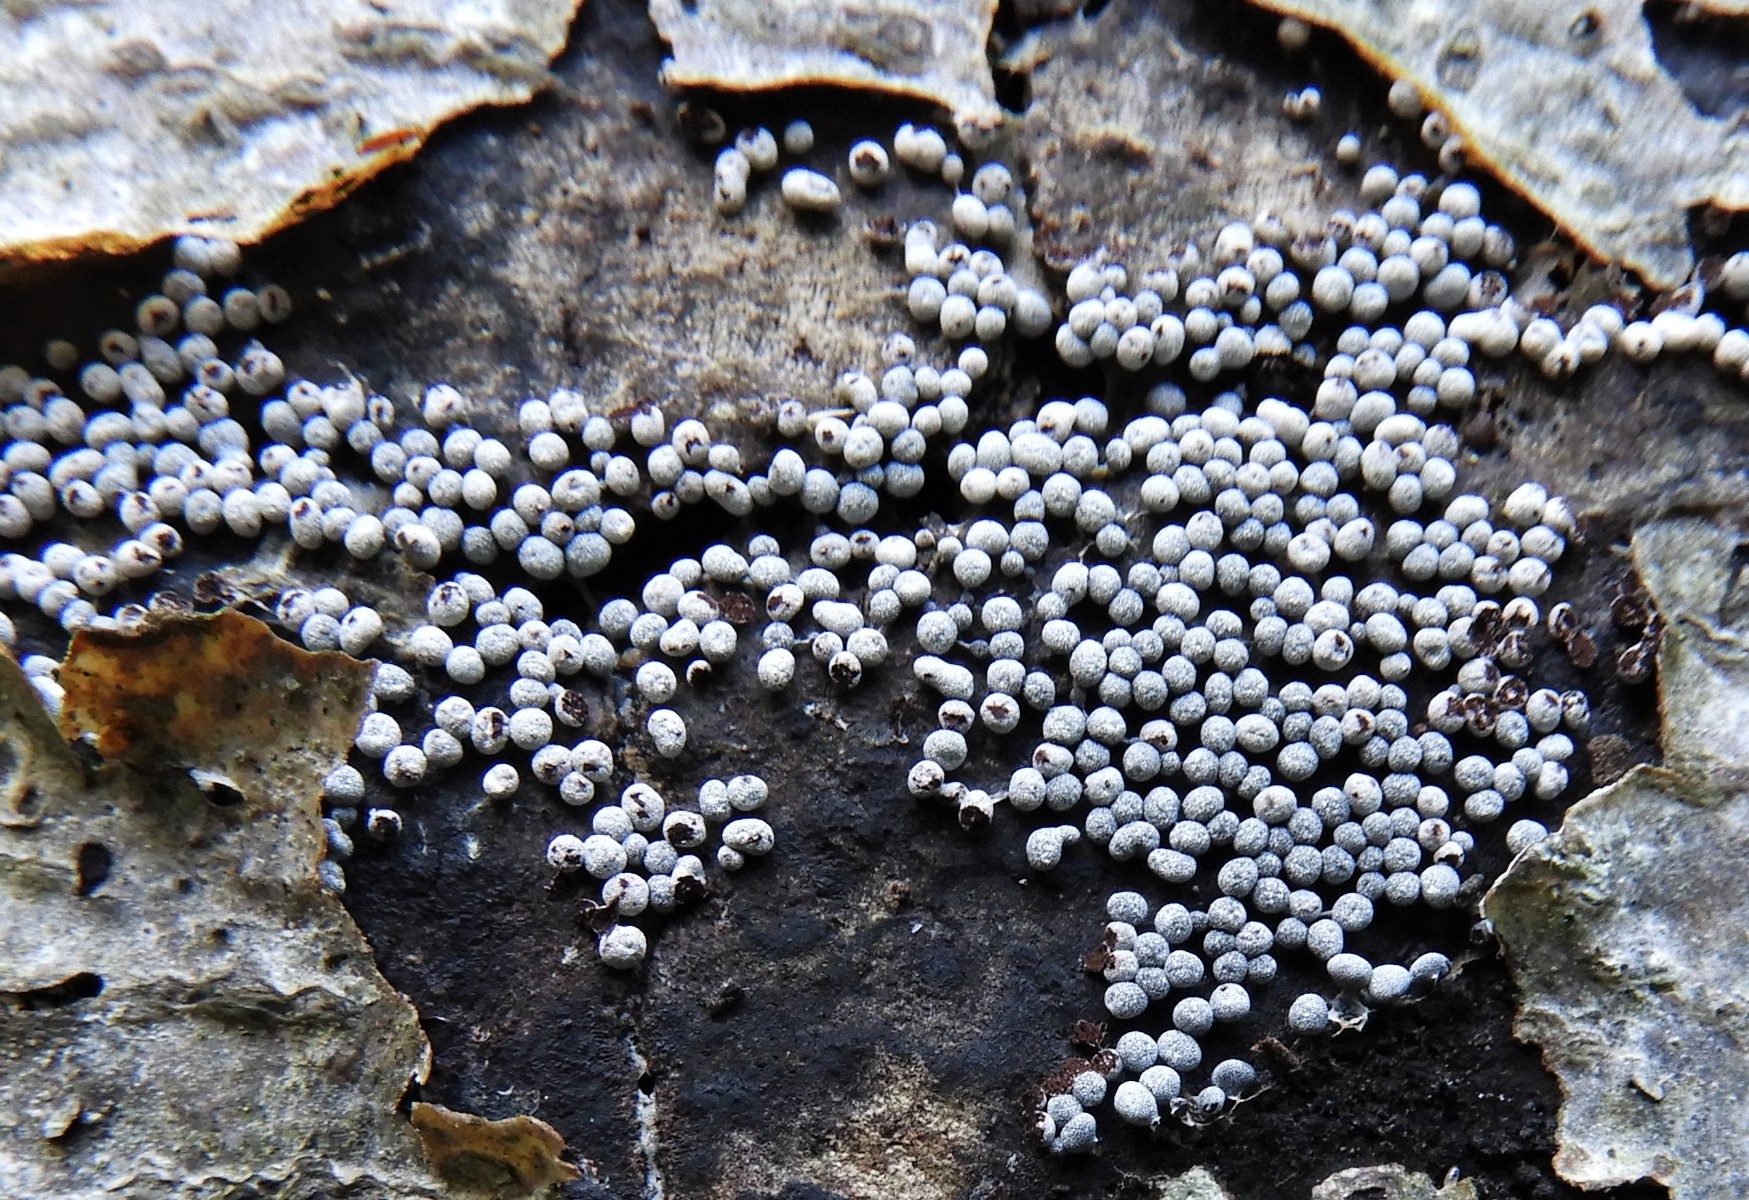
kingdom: Protozoa
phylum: Mycetozoa
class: Myxomycetes
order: Physarales
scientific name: Physarales
